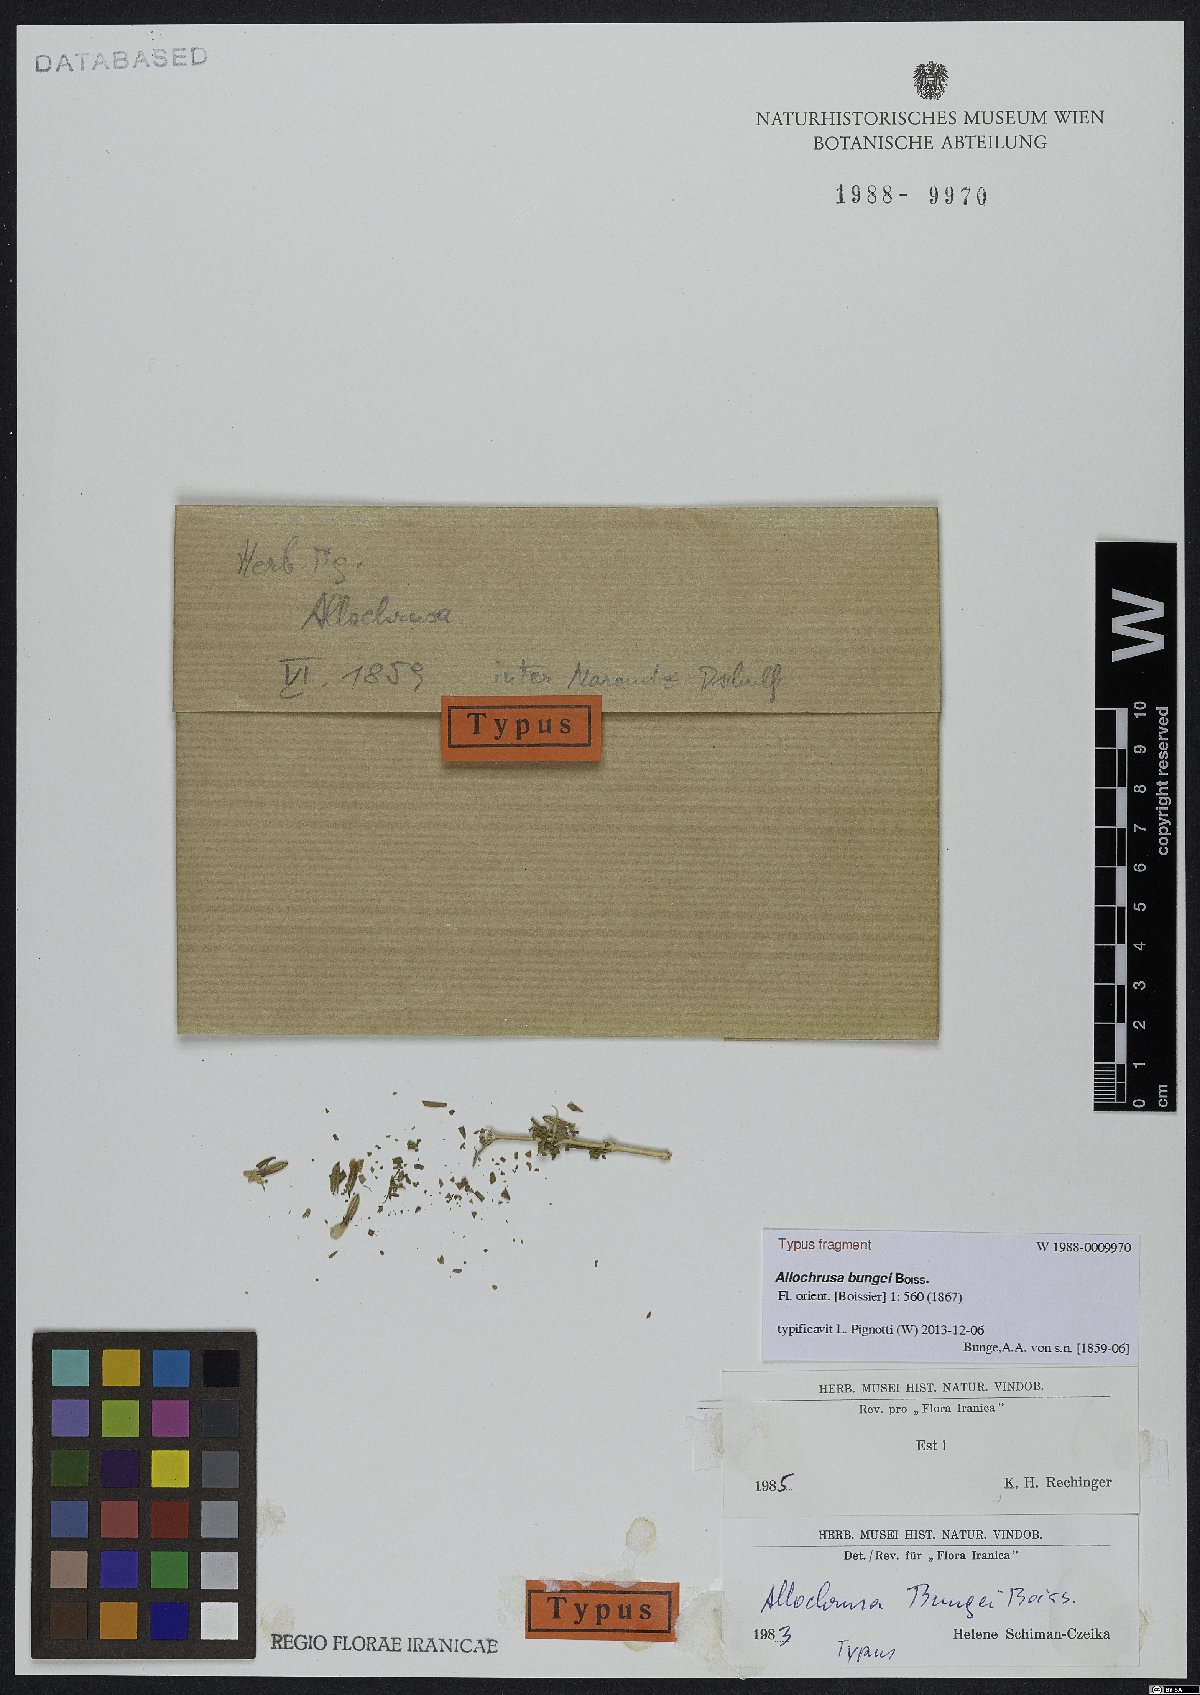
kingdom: Plantae
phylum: Tracheophyta
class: Magnoliopsida
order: Caryophyllales
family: Caryophyllaceae
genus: Acanthophyllum
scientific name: Acanthophyllum bungei
